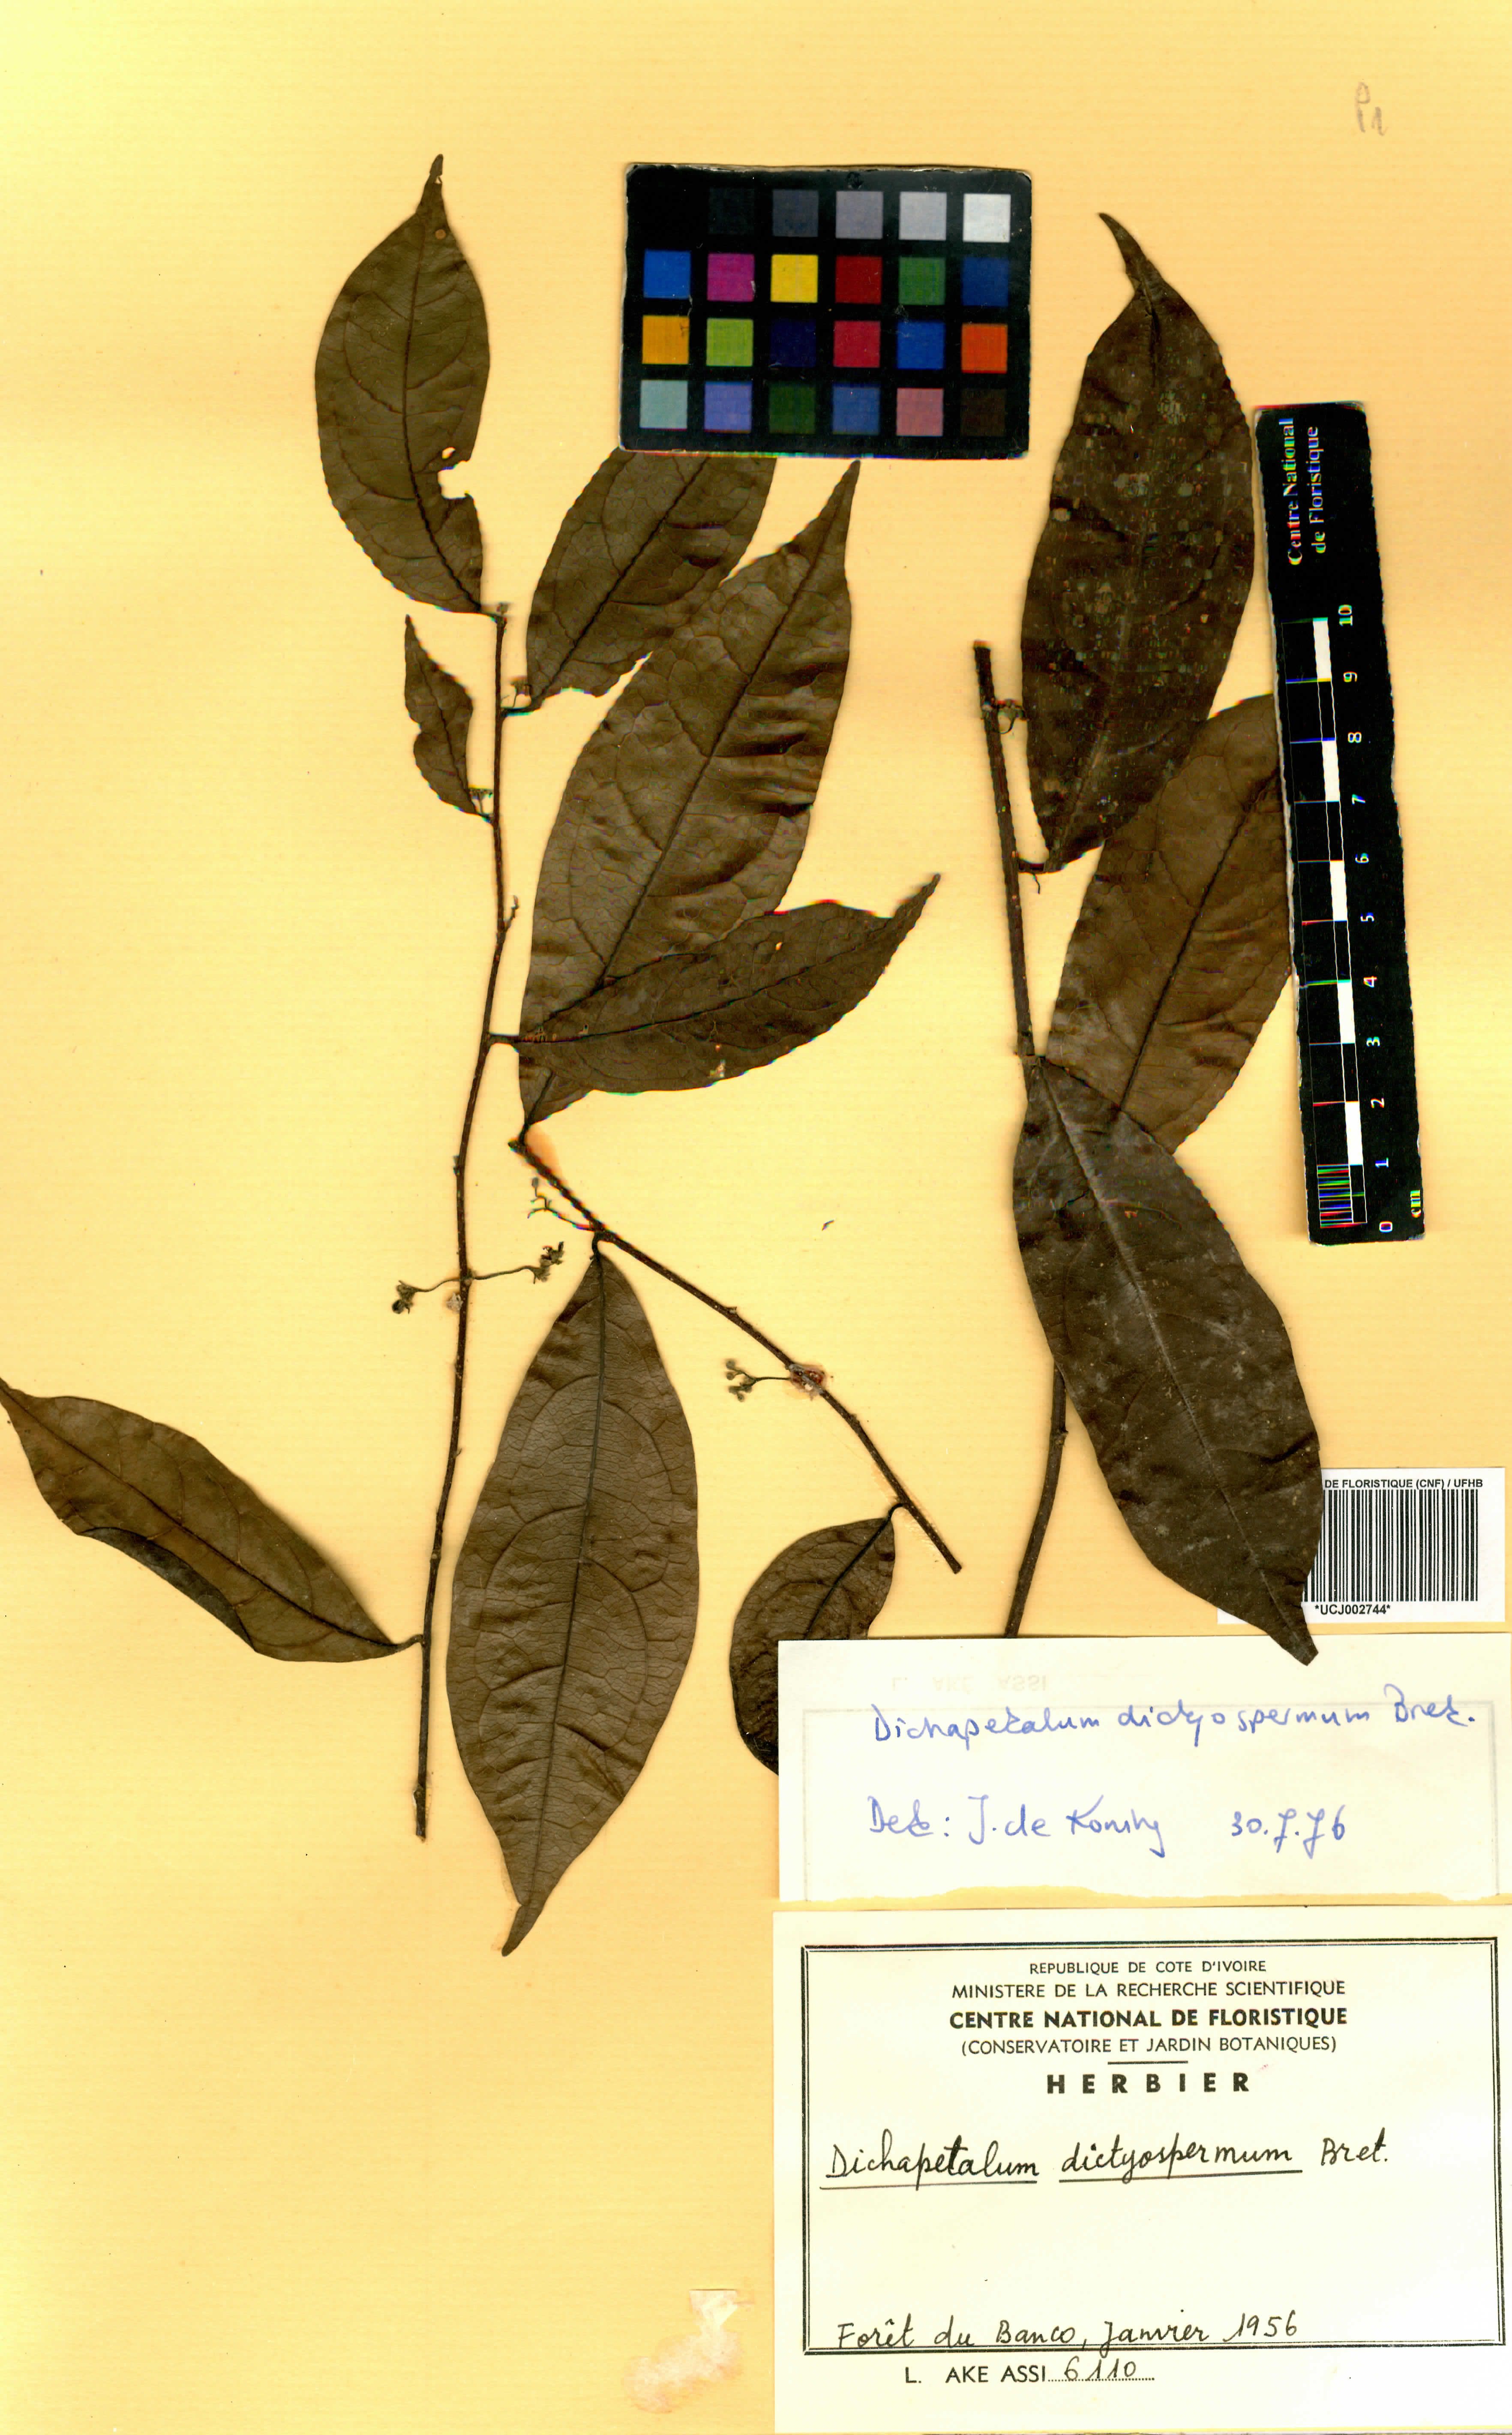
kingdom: Plantae
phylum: Tracheophyta
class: Magnoliopsida
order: Malpighiales
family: Dichapetalaceae
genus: Dichapetalum
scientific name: Dichapetalum dictyospermum
